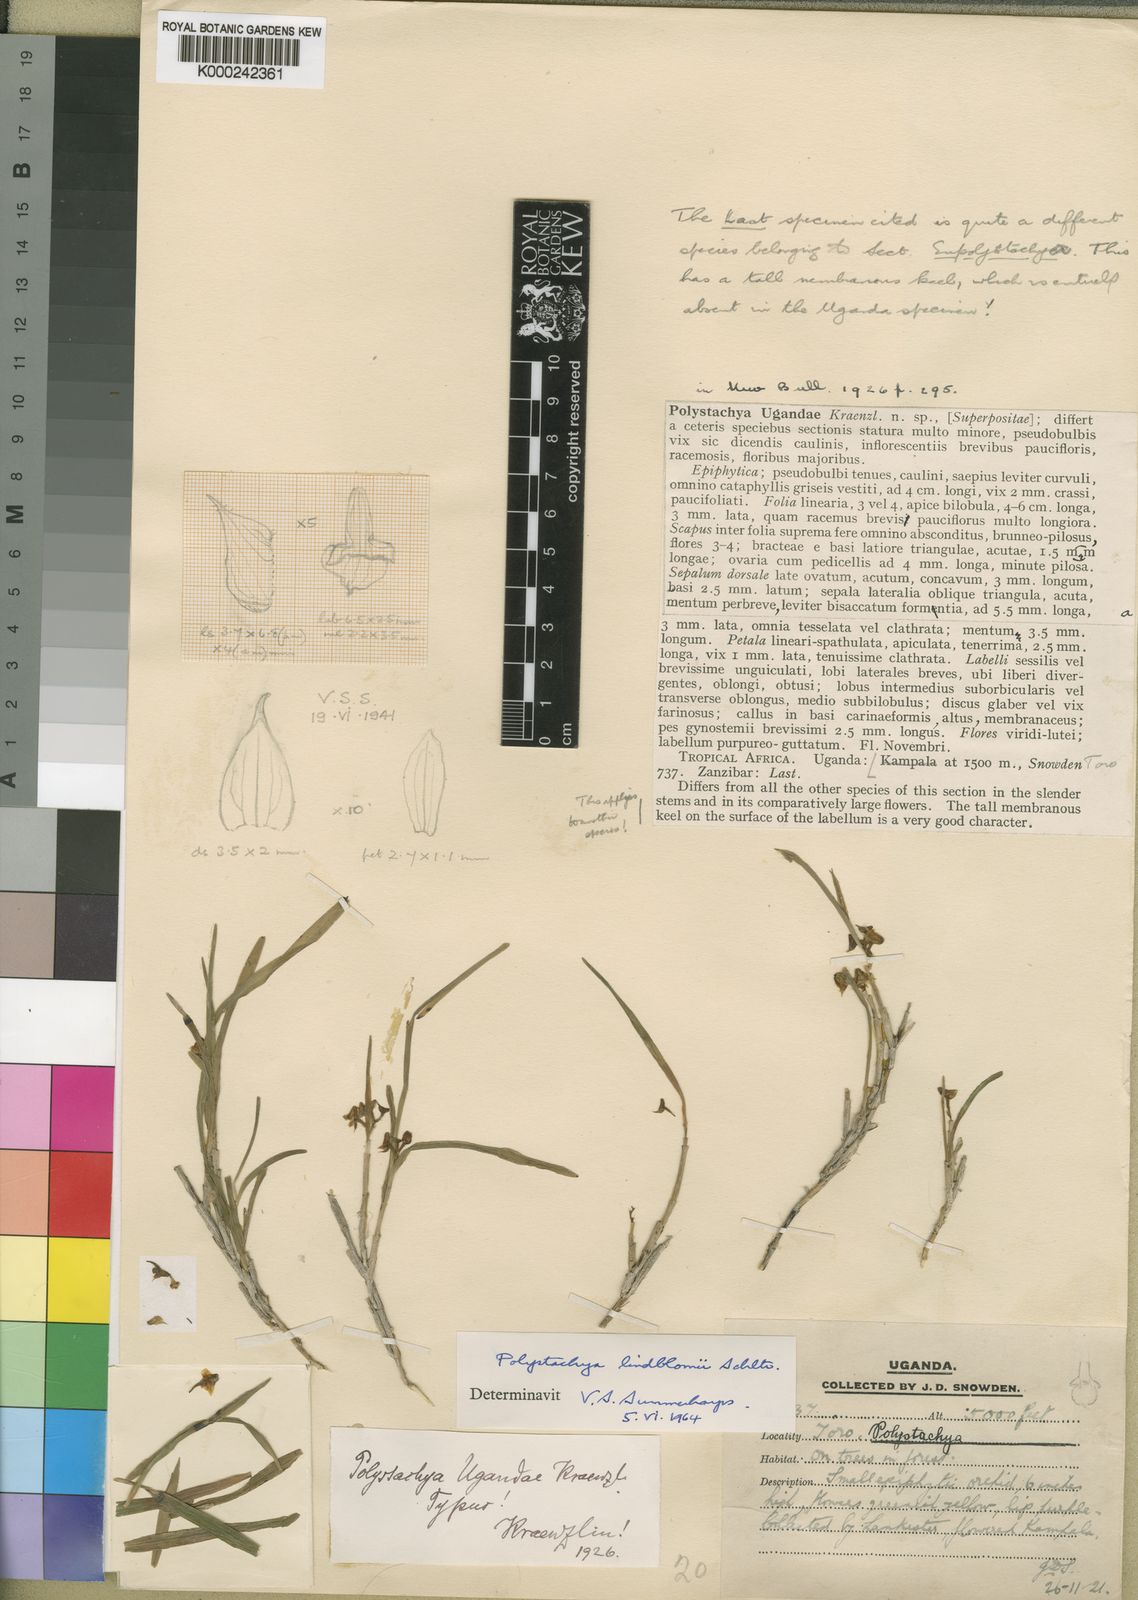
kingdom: Plantae
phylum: Tracheophyta
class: Liliopsida
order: Asparagales
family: Orchidaceae
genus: Polystachya
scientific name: Polystachya lindblomii
